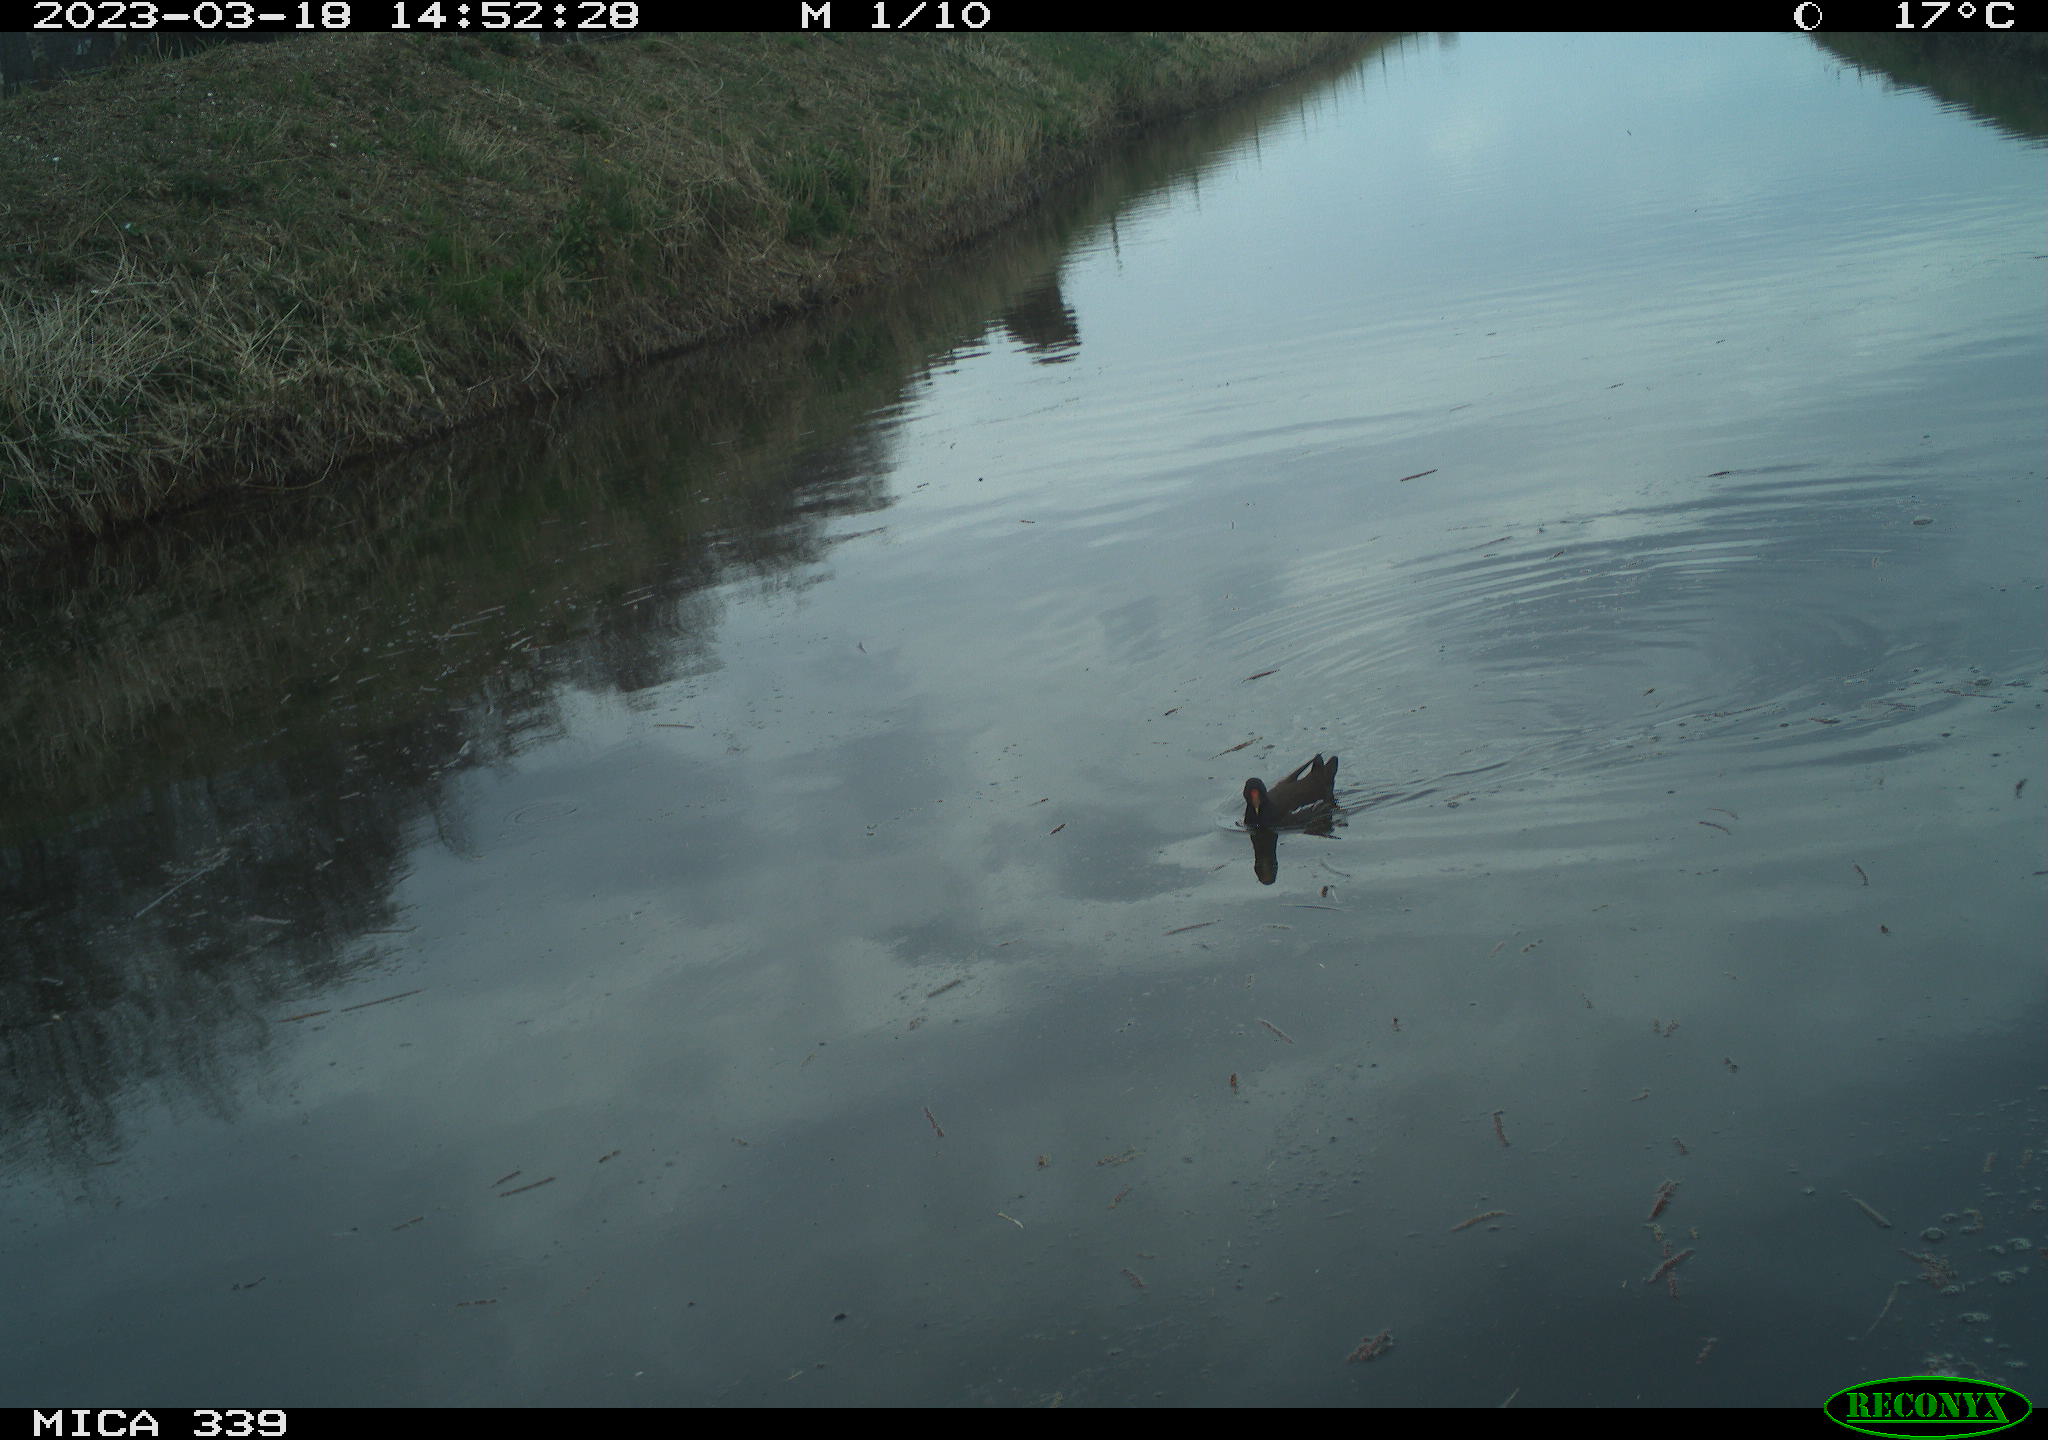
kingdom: Animalia
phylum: Chordata
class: Aves
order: Gruiformes
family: Rallidae
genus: Gallinula
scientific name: Gallinula chloropus
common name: Common moorhen
